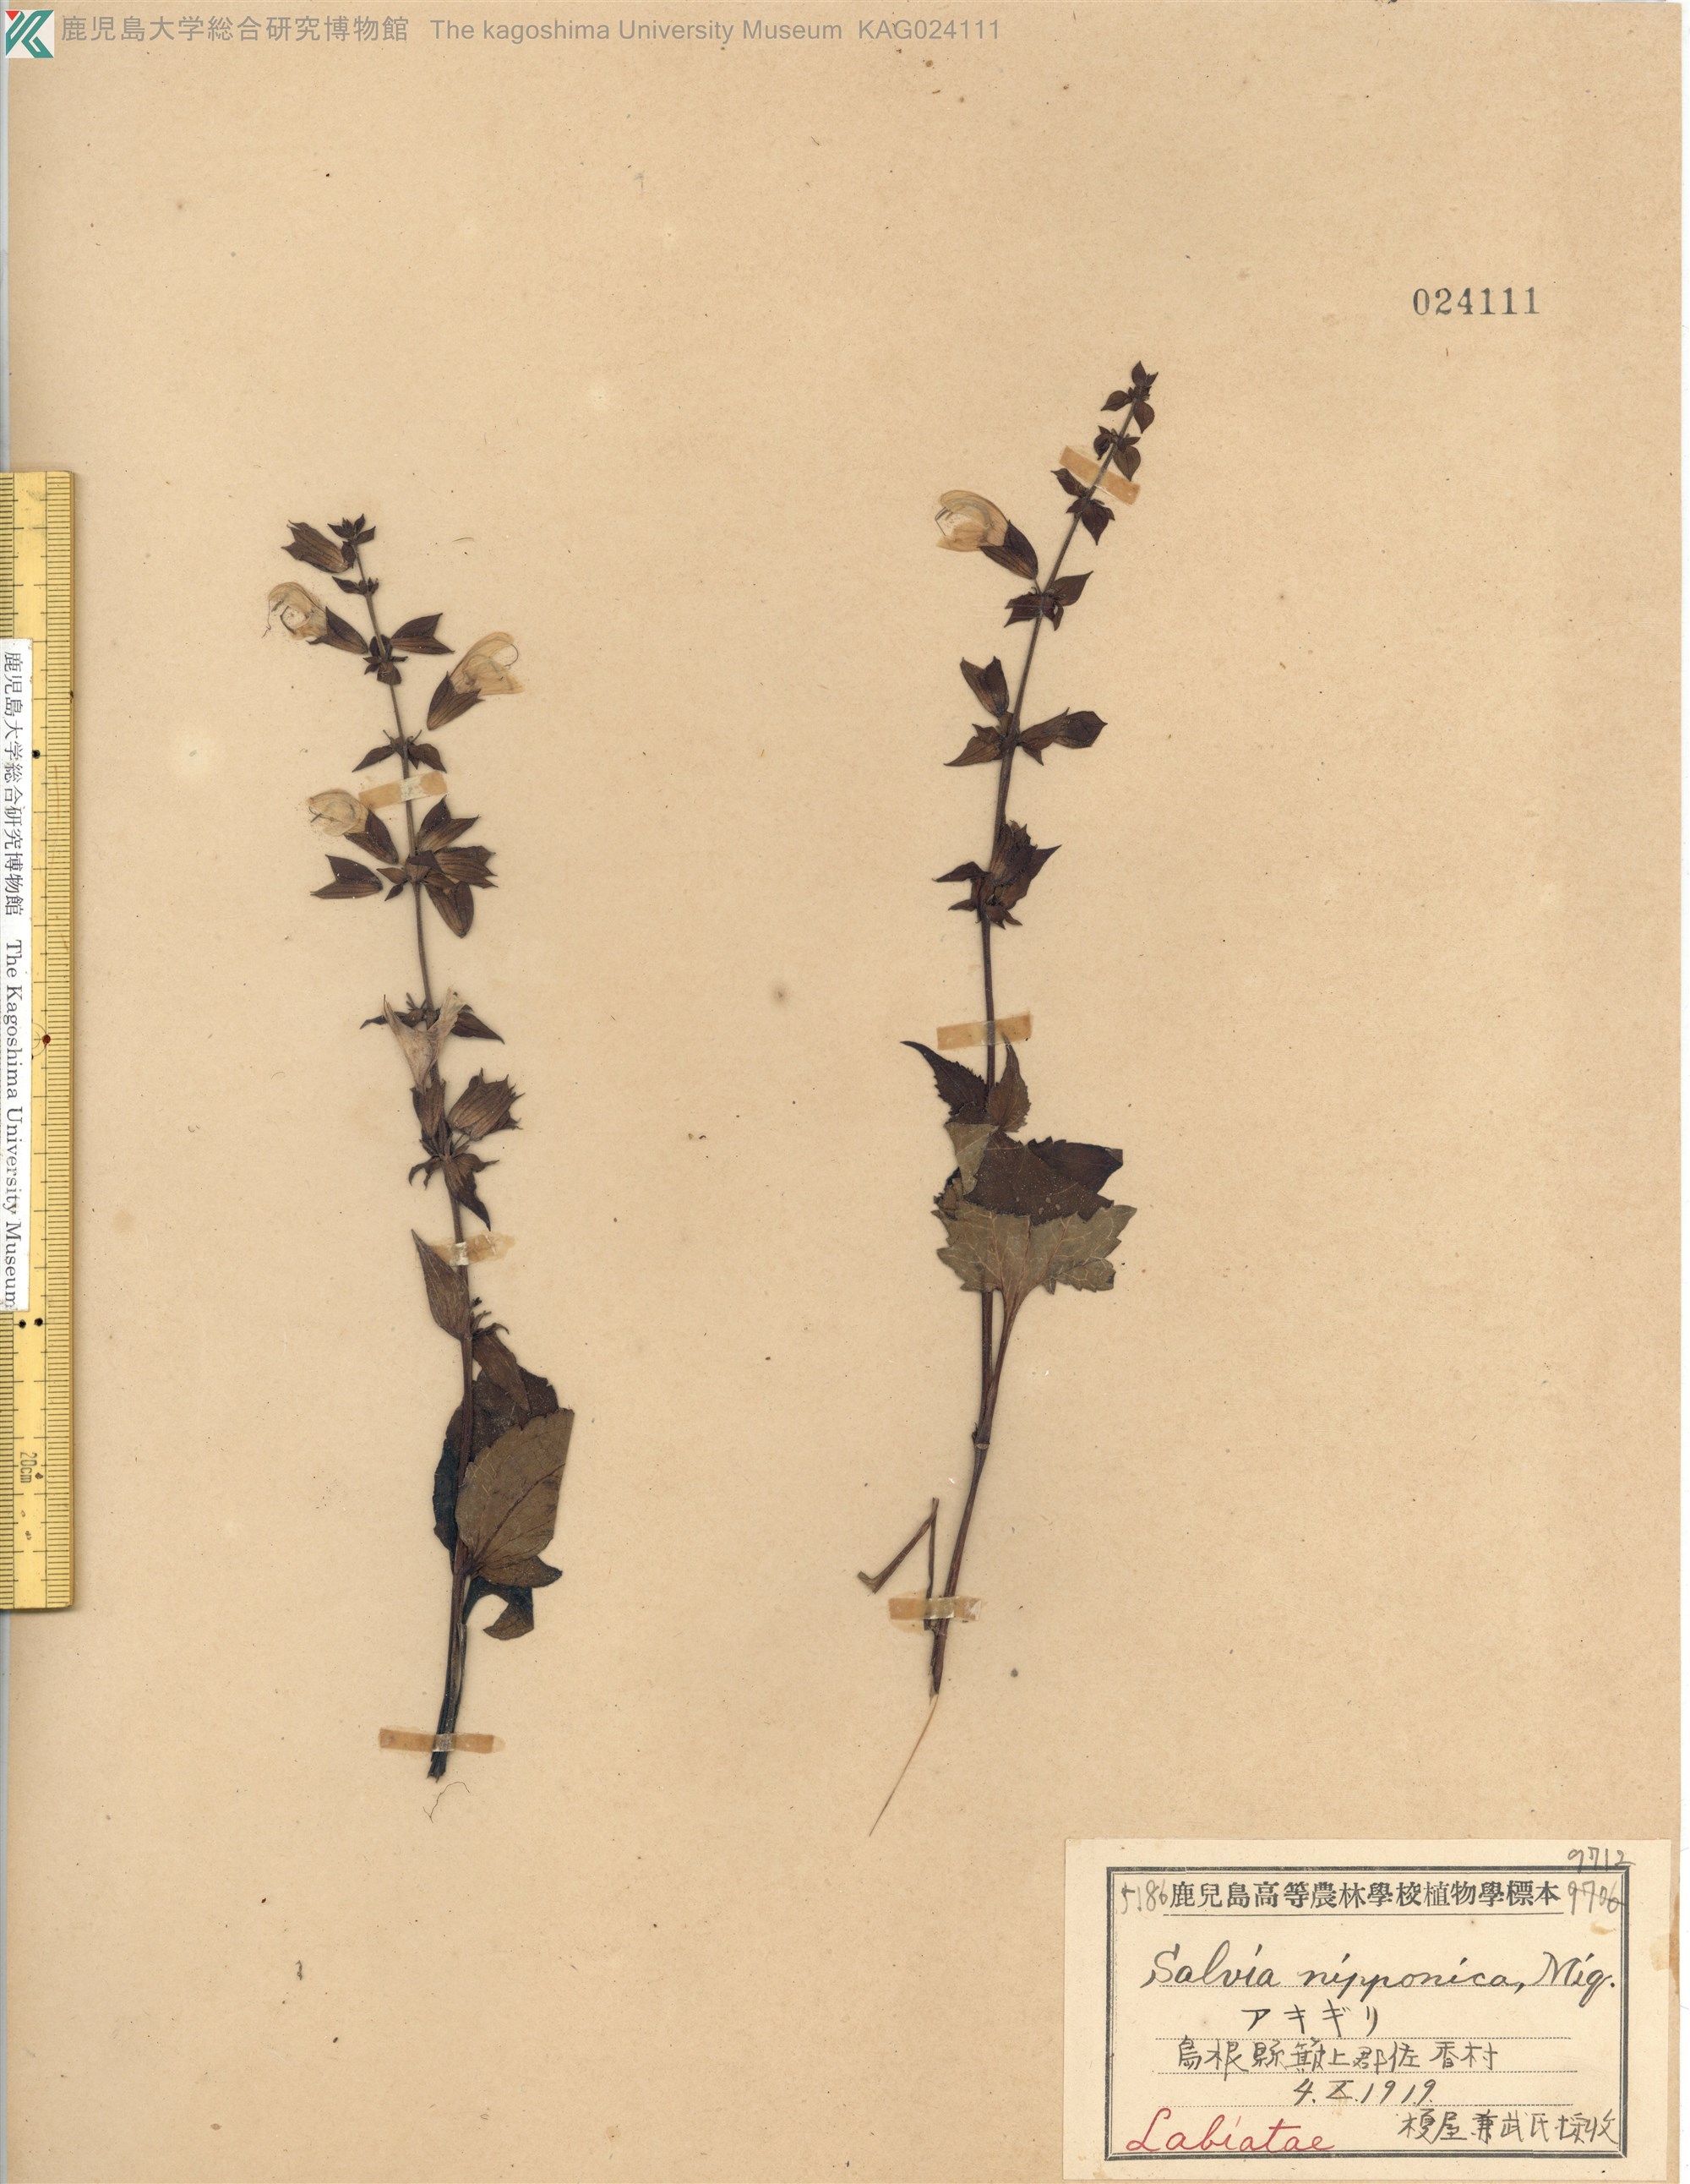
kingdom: Plantae
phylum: Tracheophyta
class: Magnoliopsida
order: Lamiales
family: Lamiaceae
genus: Salvia
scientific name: Salvia nipponica
